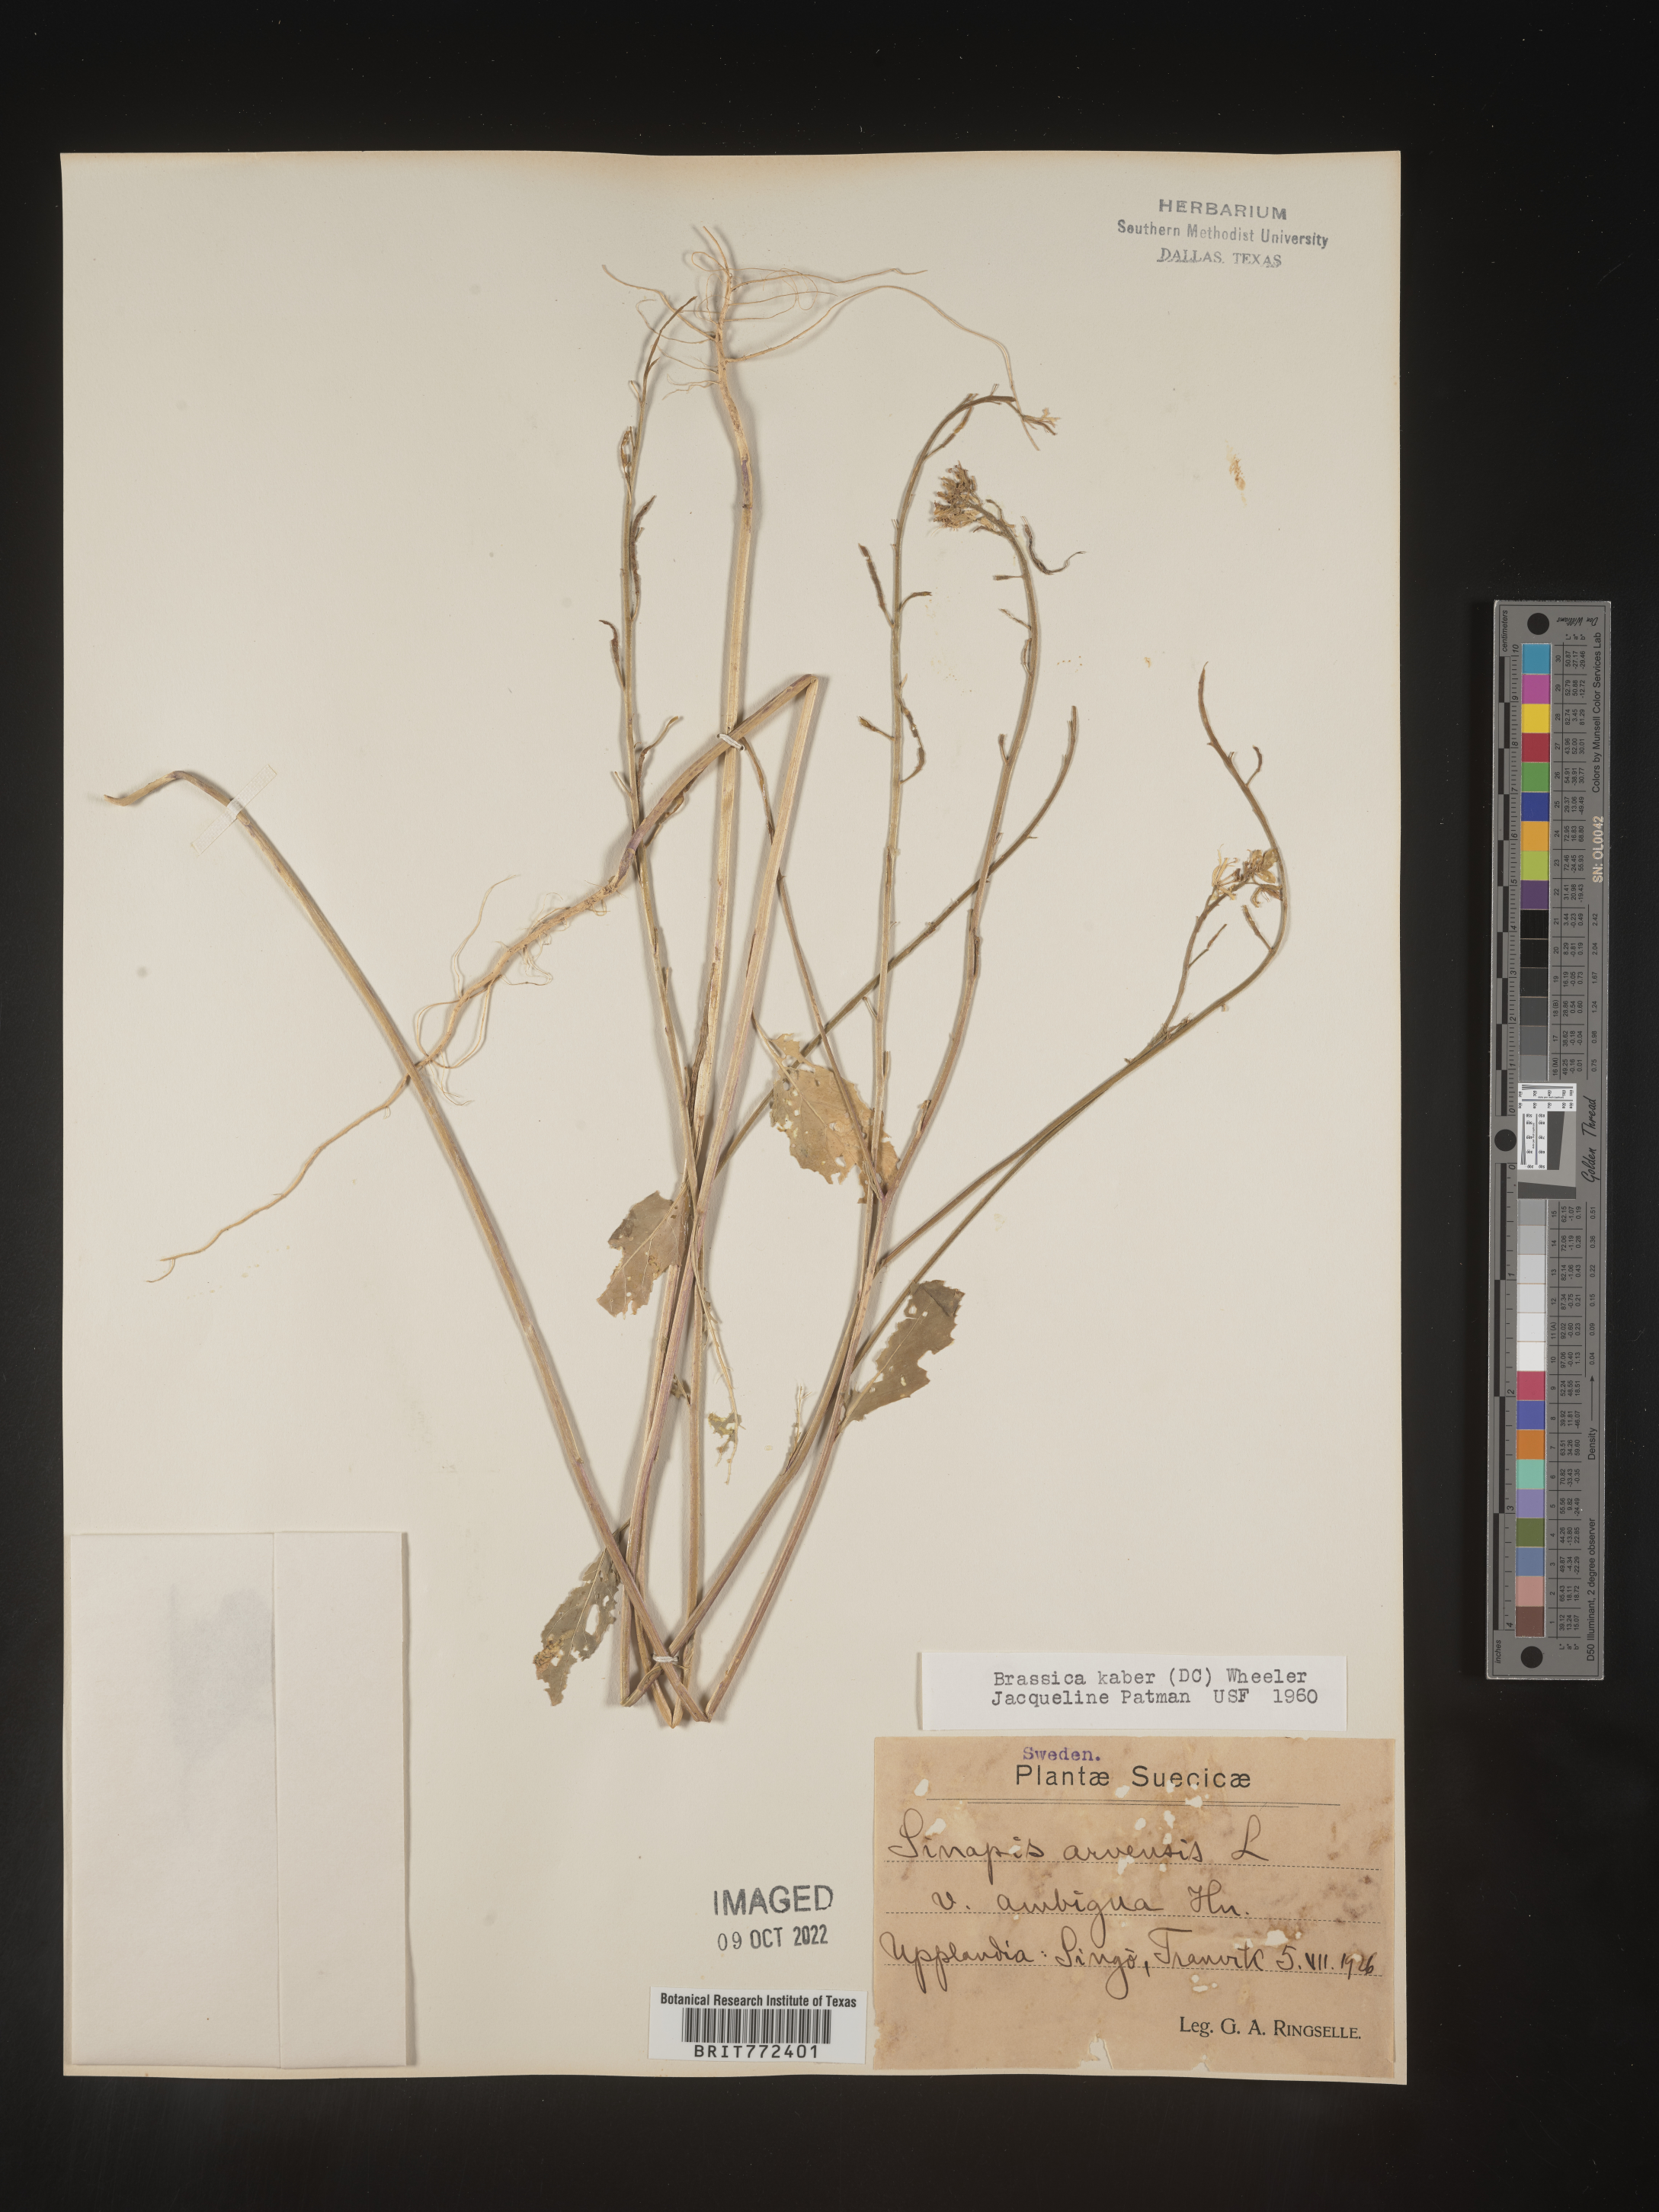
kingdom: Plantae
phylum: Tracheophyta
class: Magnoliopsida
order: Brassicales
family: Brassicaceae
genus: Brassica
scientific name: Brassica
